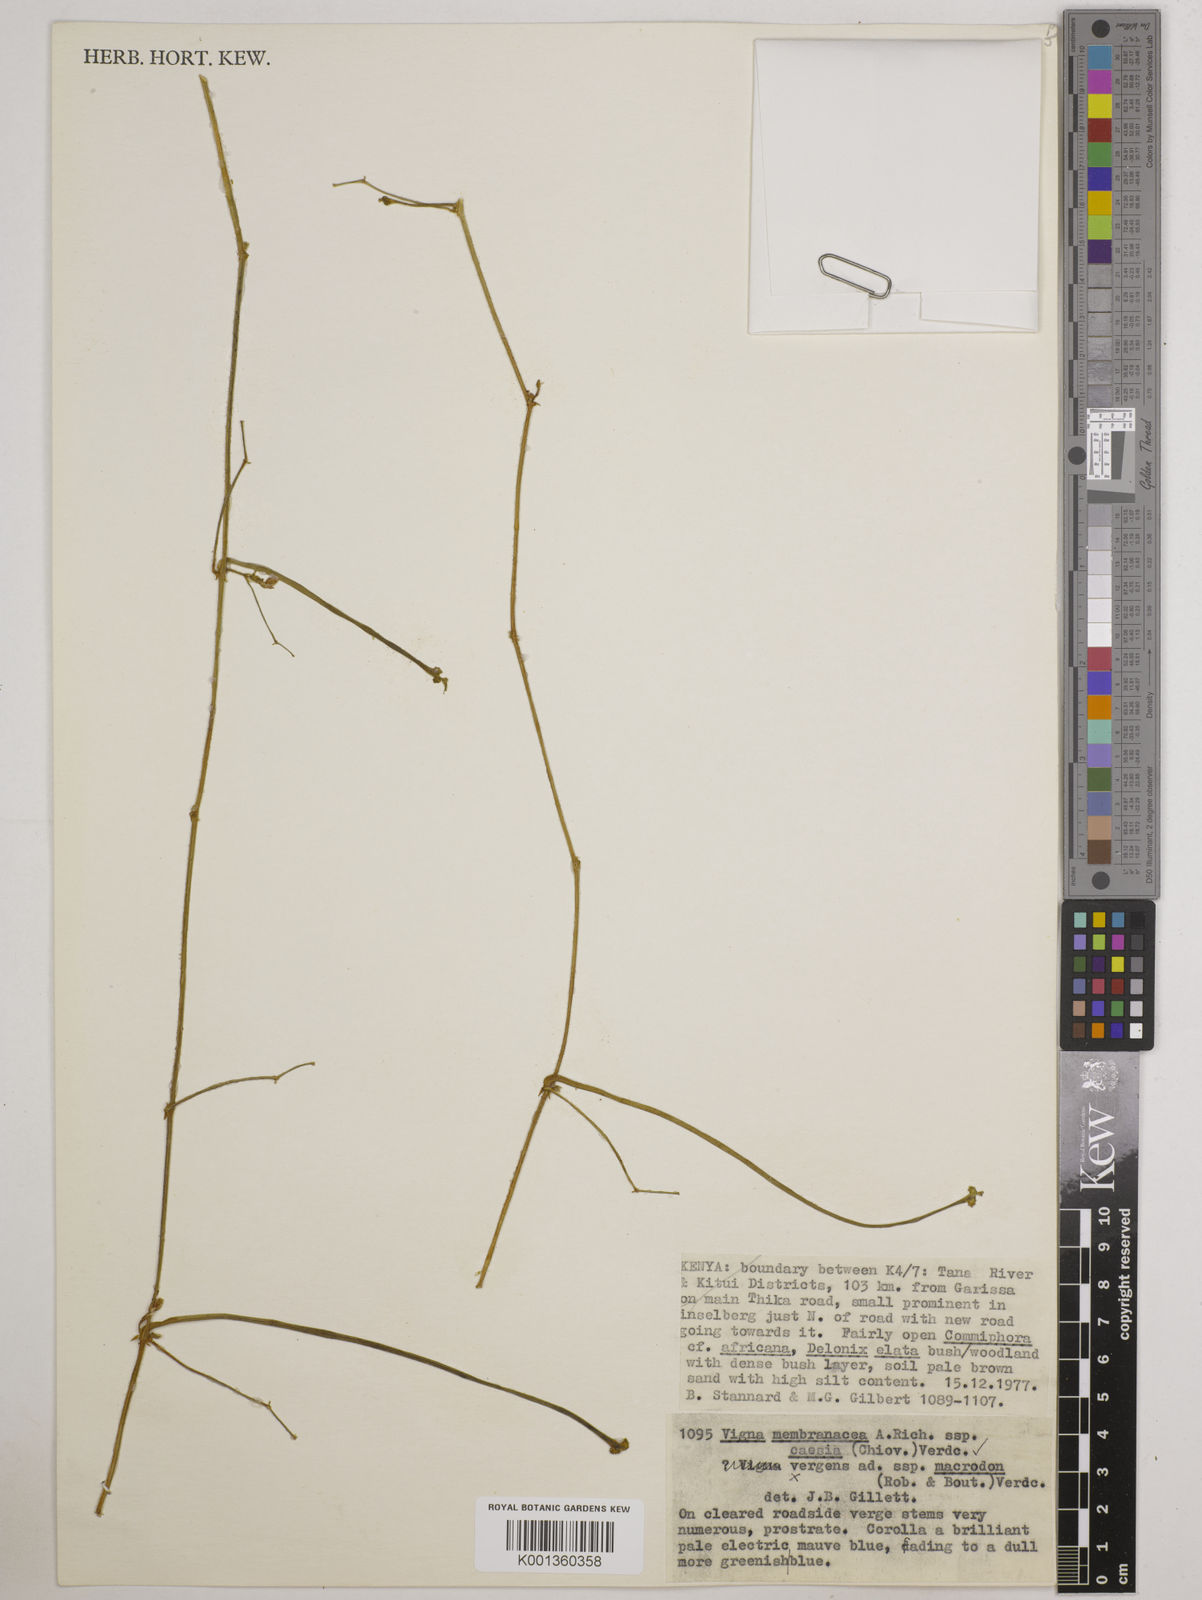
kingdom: Plantae
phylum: Tracheophyta
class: Magnoliopsida
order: Fabales
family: Fabaceae
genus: Vigna
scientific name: Vigna
